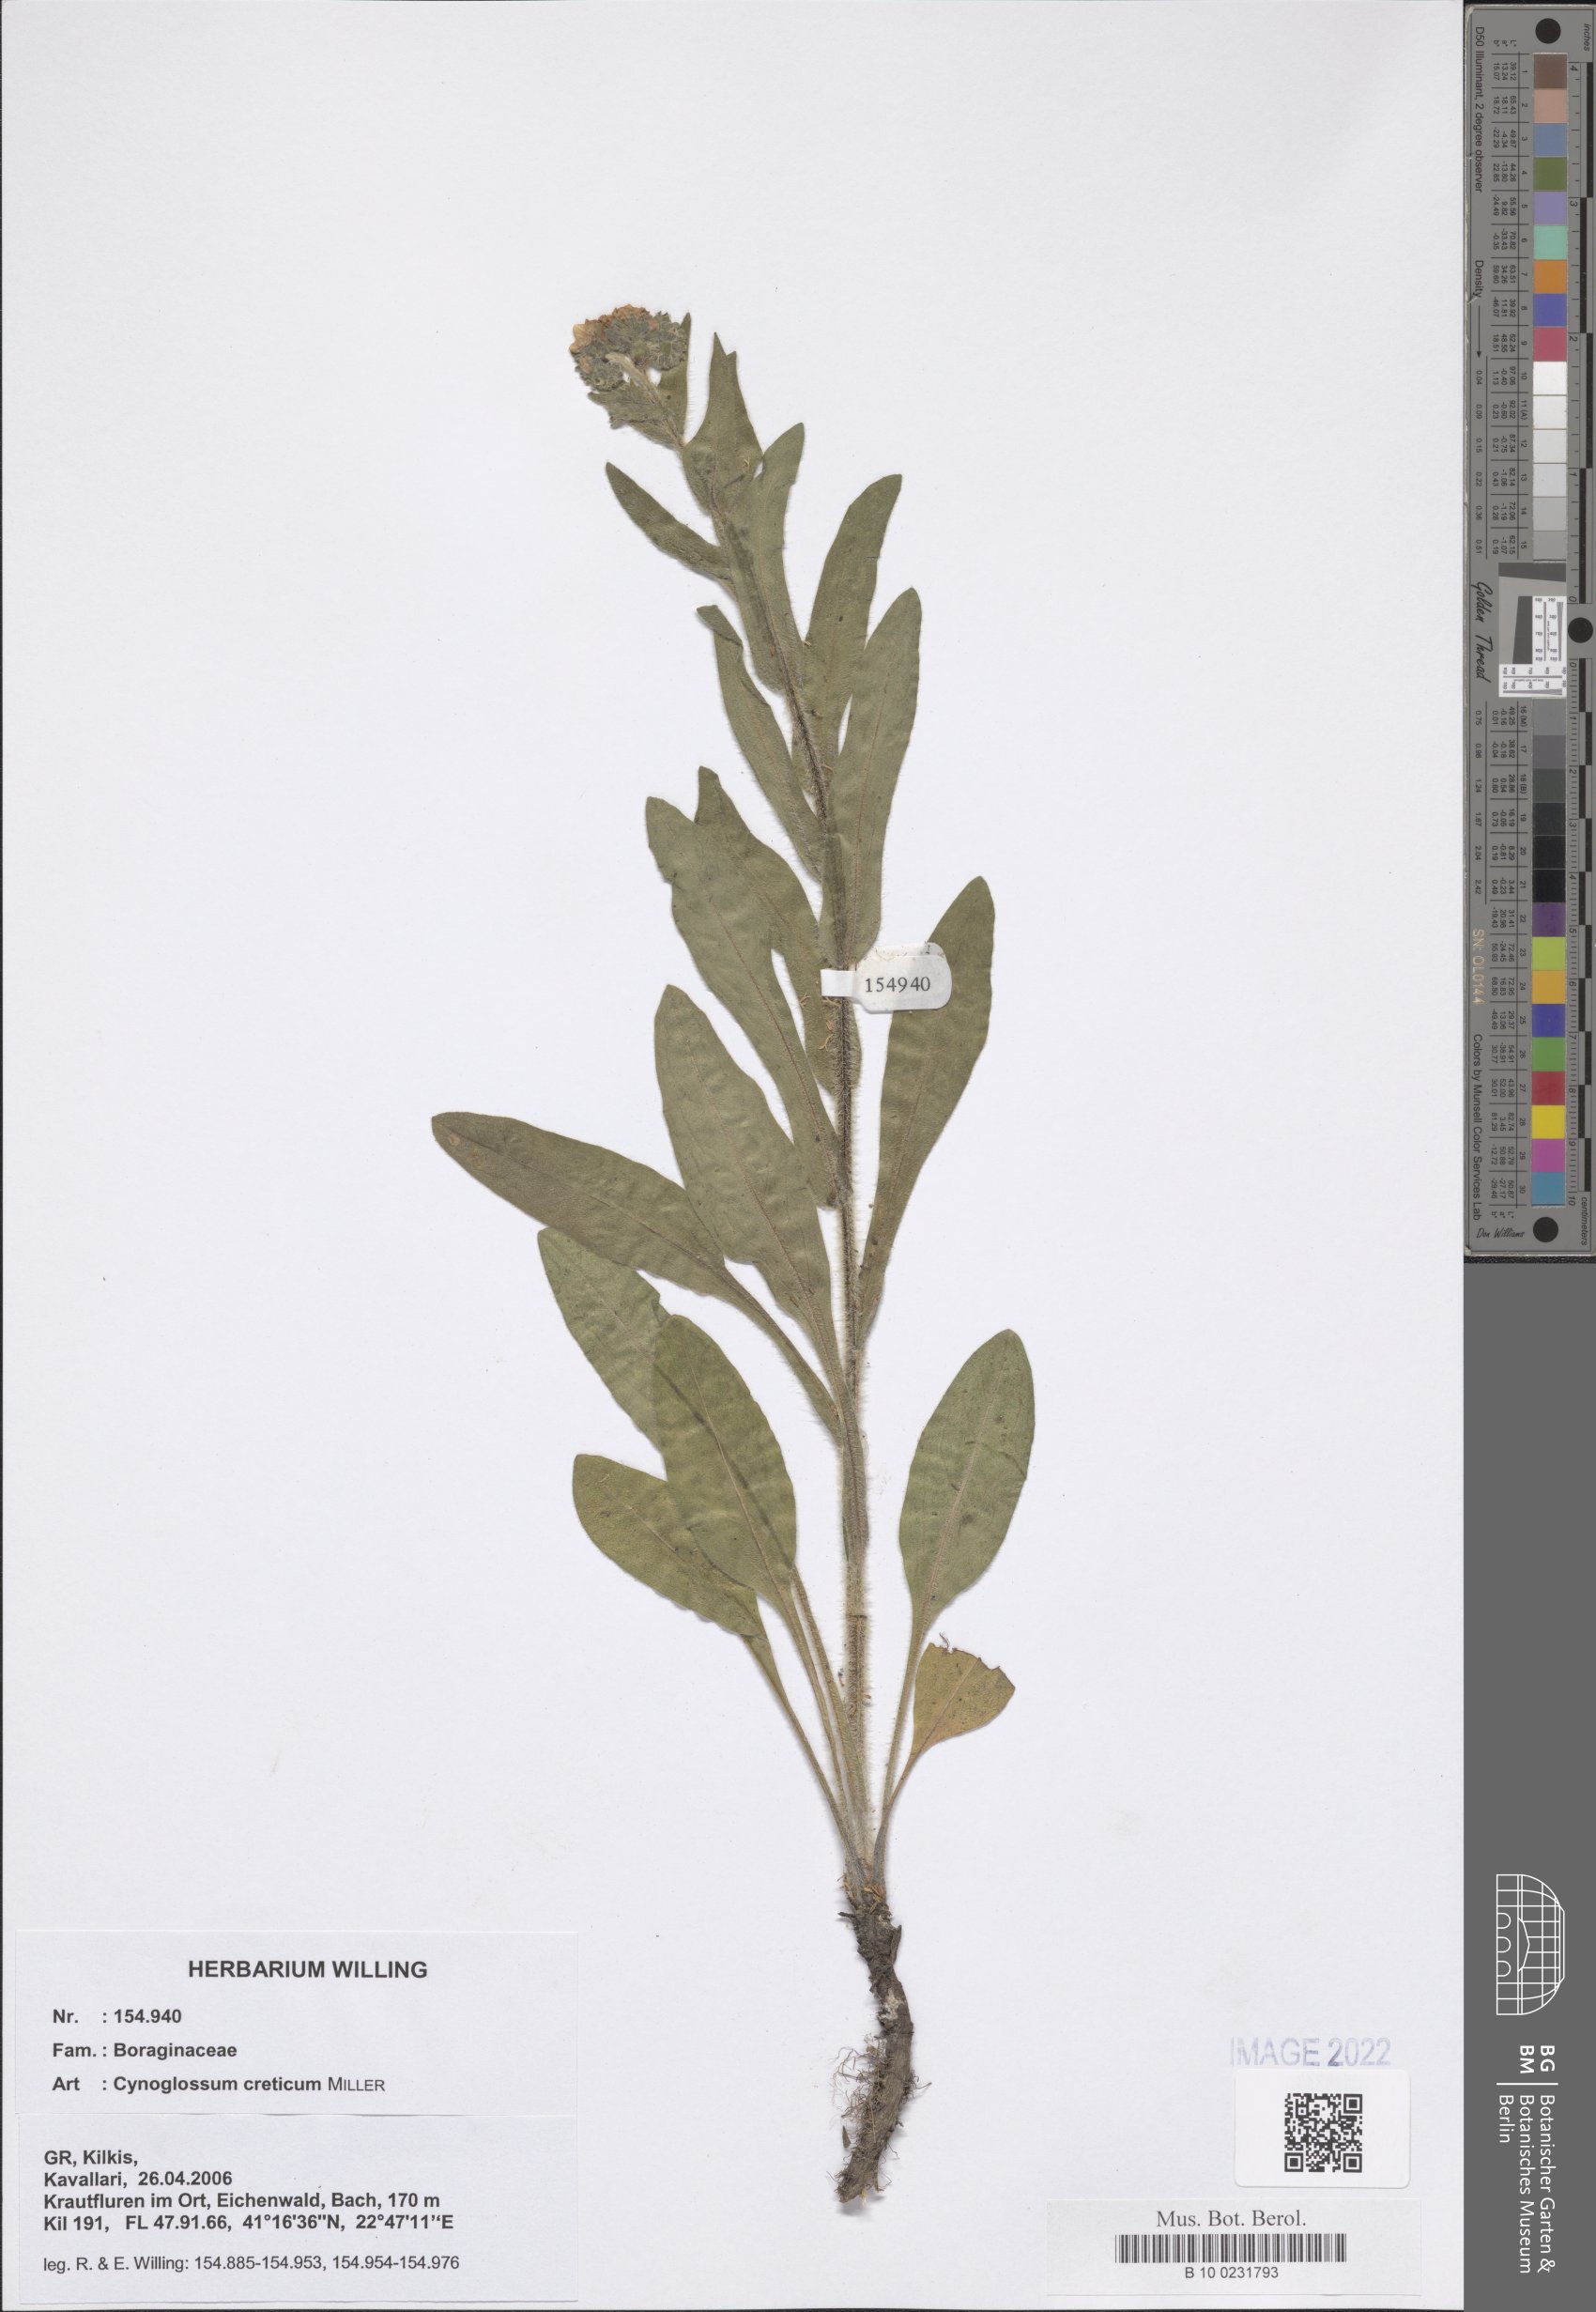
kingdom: Plantae
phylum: Tracheophyta
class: Magnoliopsida
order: Boraginales
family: Boraginaceae
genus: Cynoglossum
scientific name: Cynoglossum creticum
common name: Blue hound's tongue
